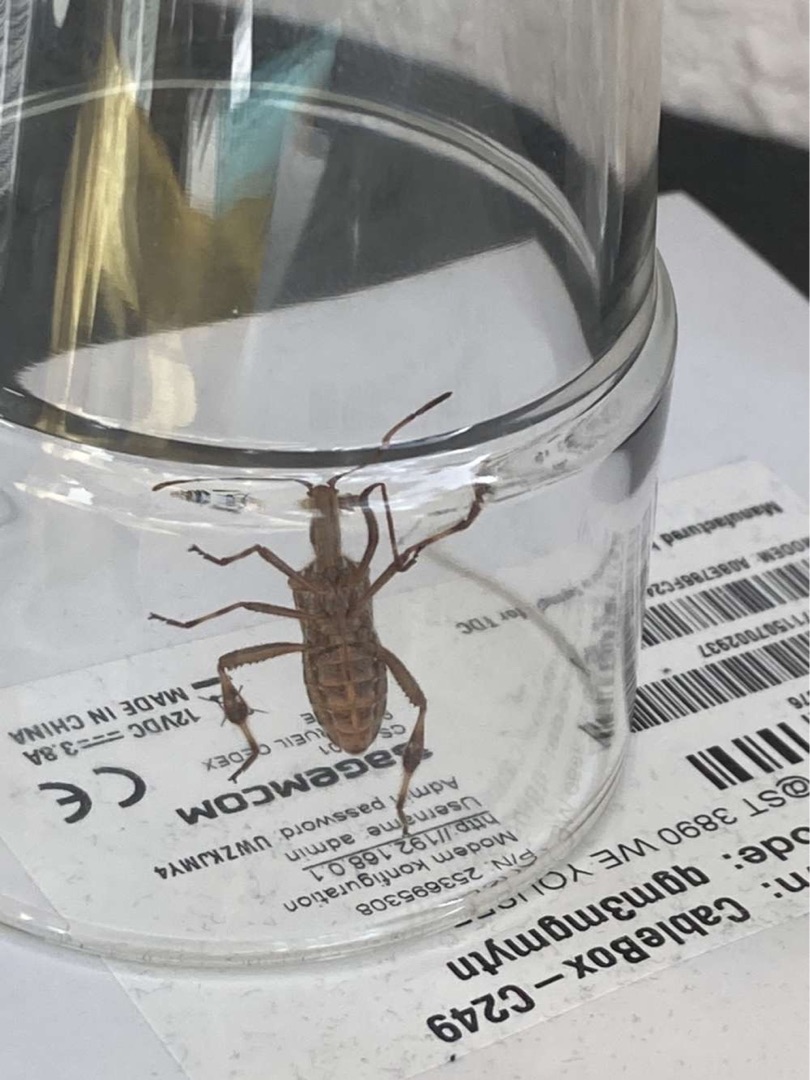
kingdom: Animalia
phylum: Arthropoda
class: Insecta
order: Hemiptera
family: Coreidae
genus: Leptoglossus
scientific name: Leptoglossus occidentalis
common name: Amerikansk fyrretæge
